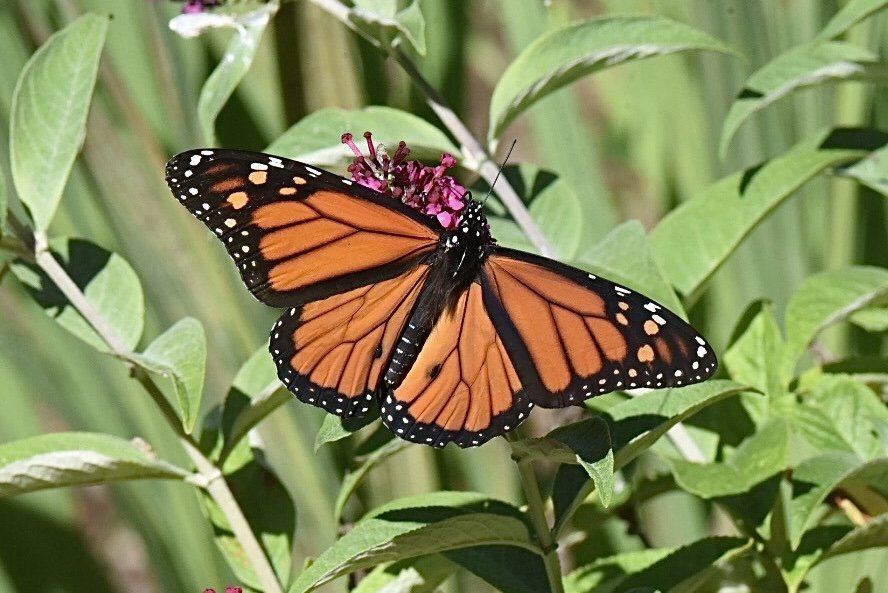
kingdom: Animalia
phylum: Arthropoda
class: Insecta
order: Lepidoptera
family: Nymphalidae
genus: Danaus
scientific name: Danaus plexippus
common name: Monarch
